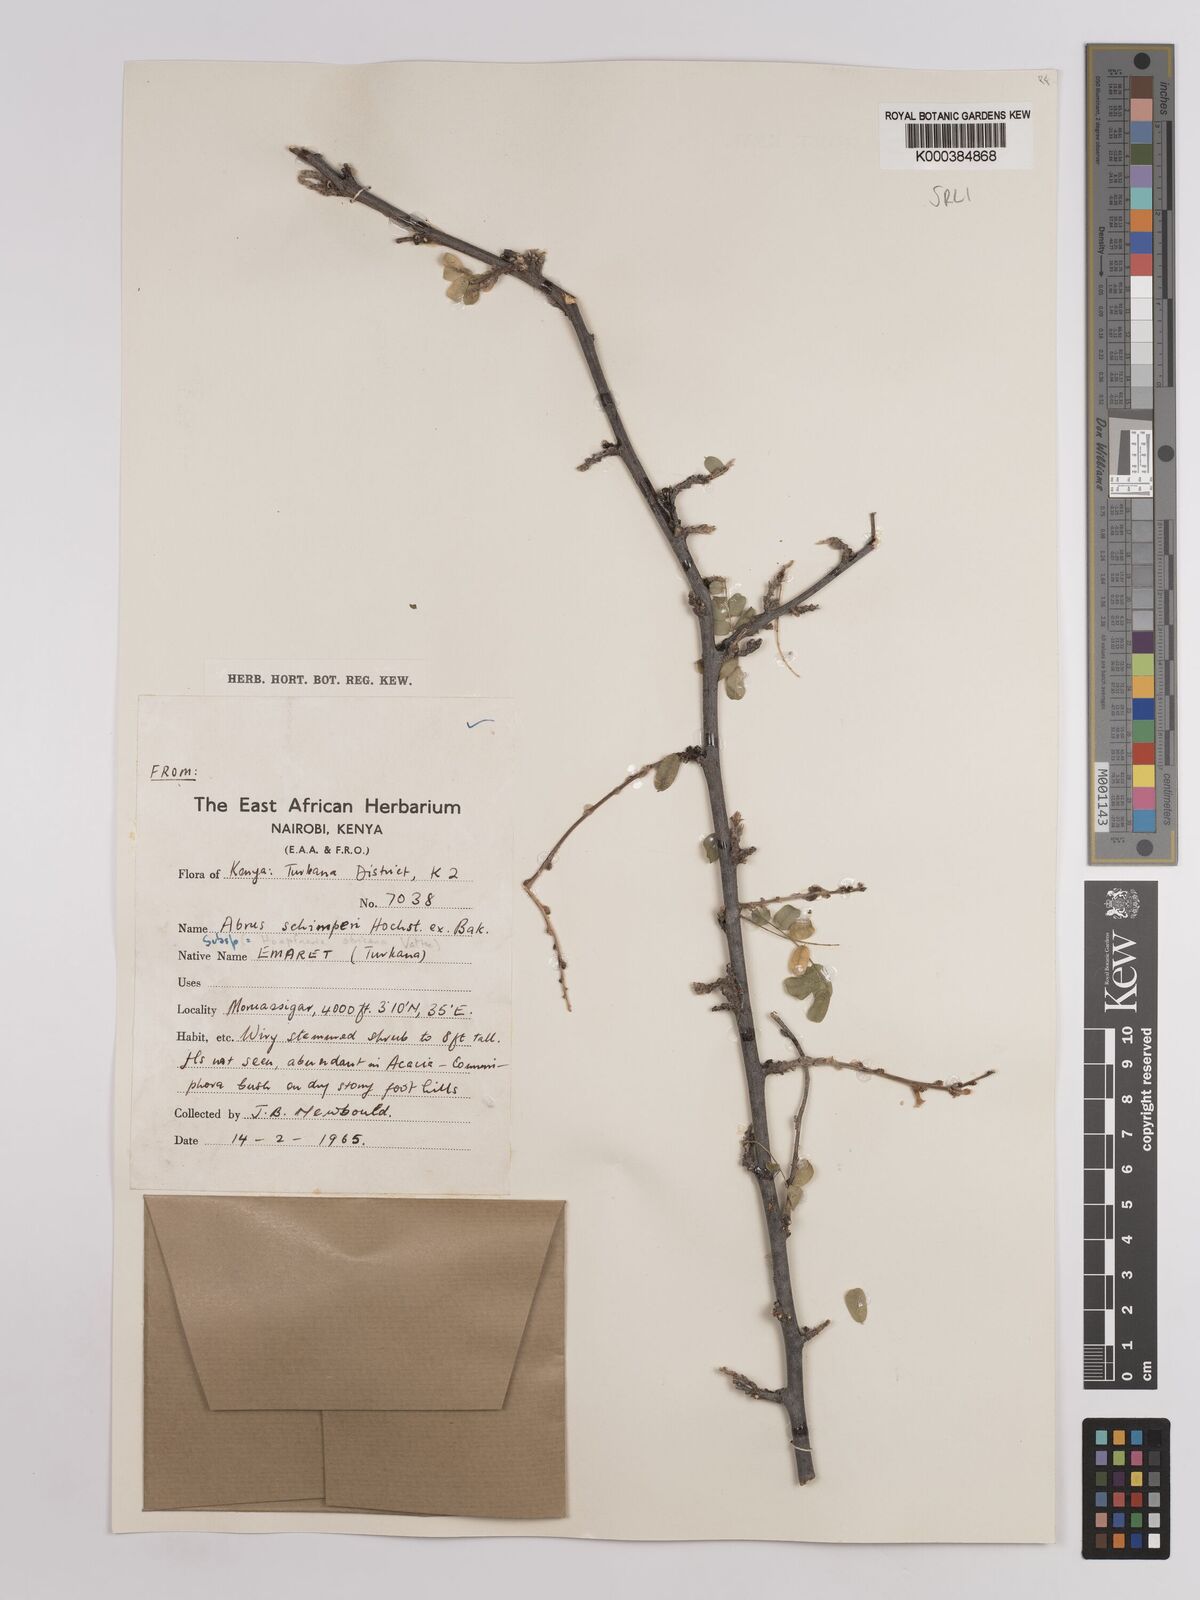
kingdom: Plantae
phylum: Tracheophyta
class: Magnoliopsida
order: Fabales
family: Fabaceae
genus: Abrus
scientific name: Abrus fruticulosus
